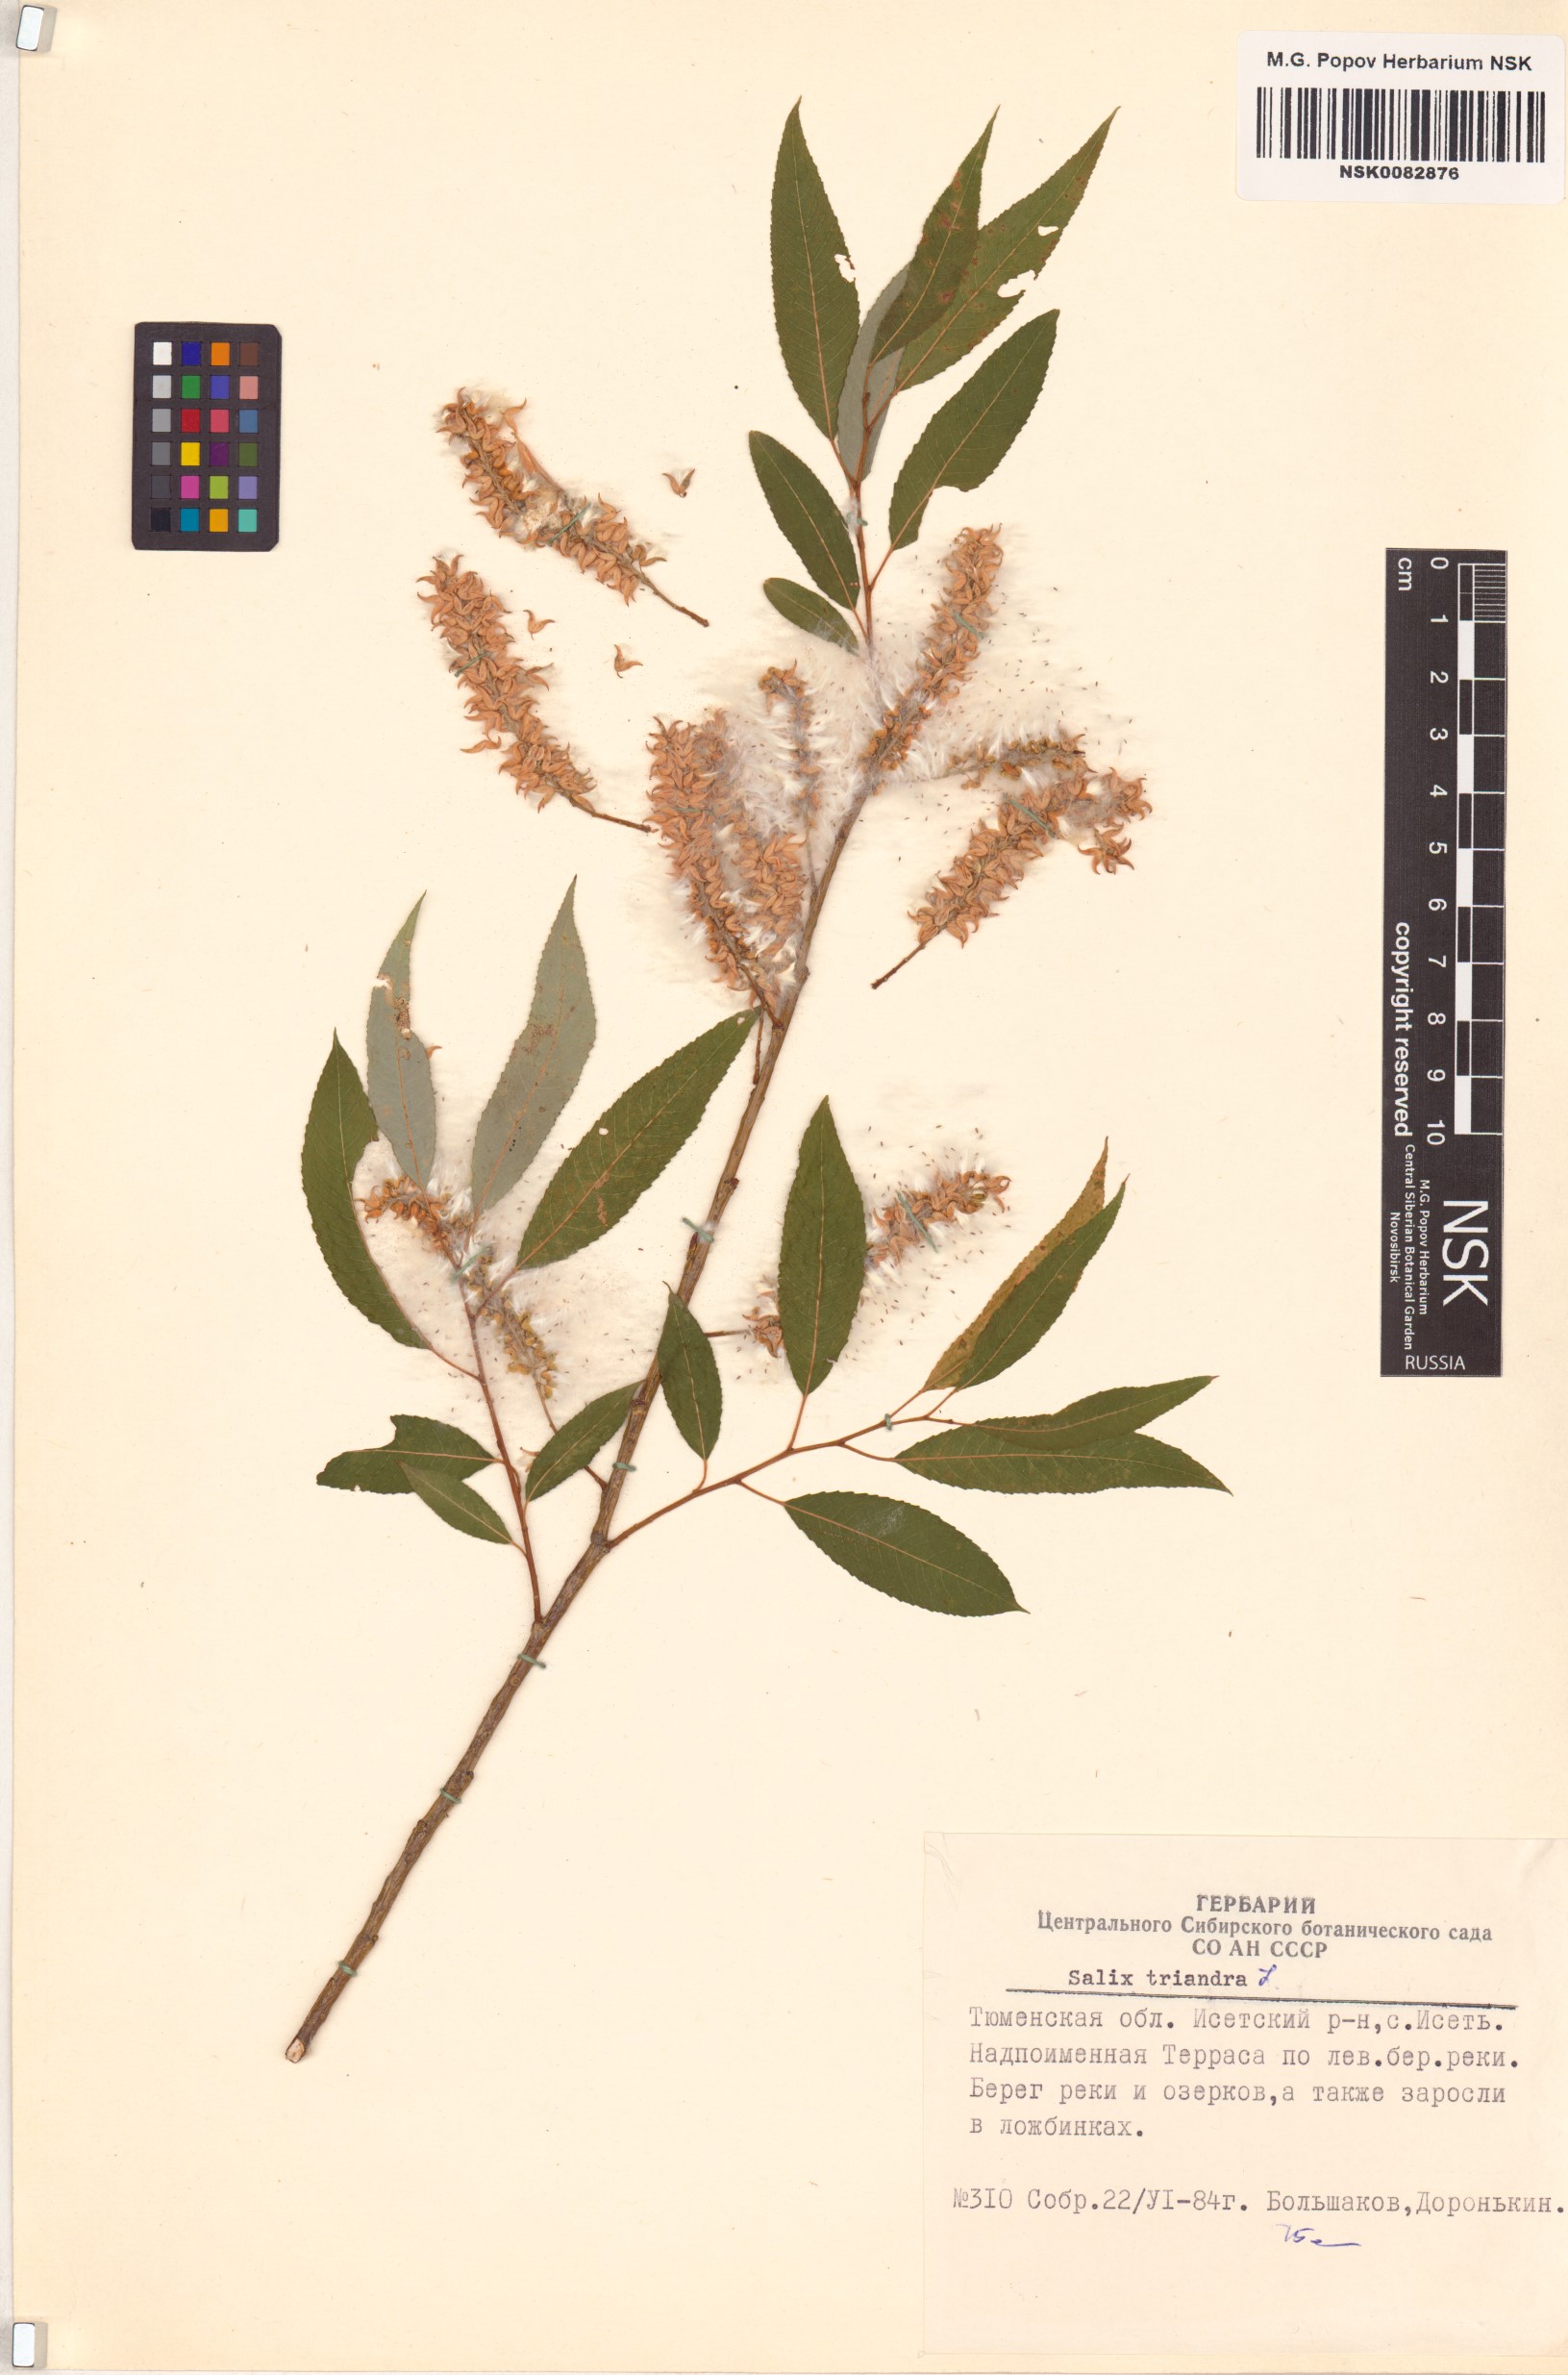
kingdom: Plantae
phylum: Tracheophyta
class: Magnoliopsida
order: Malpighiales
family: Salicaceae
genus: Salix
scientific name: Salix triandra
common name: Almond willow
